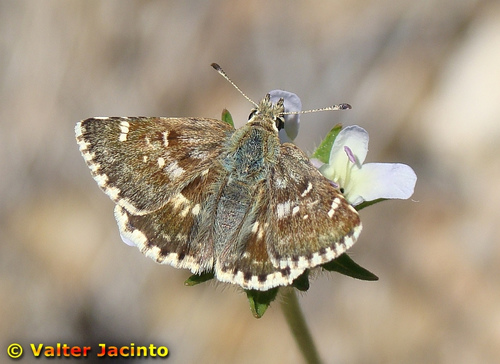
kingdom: Animalia
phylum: Arthropoda
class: Insecta
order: Lepidoptera
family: Hesperiidae
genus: Syrichtus
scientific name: Syrichtus Muschampia proto
